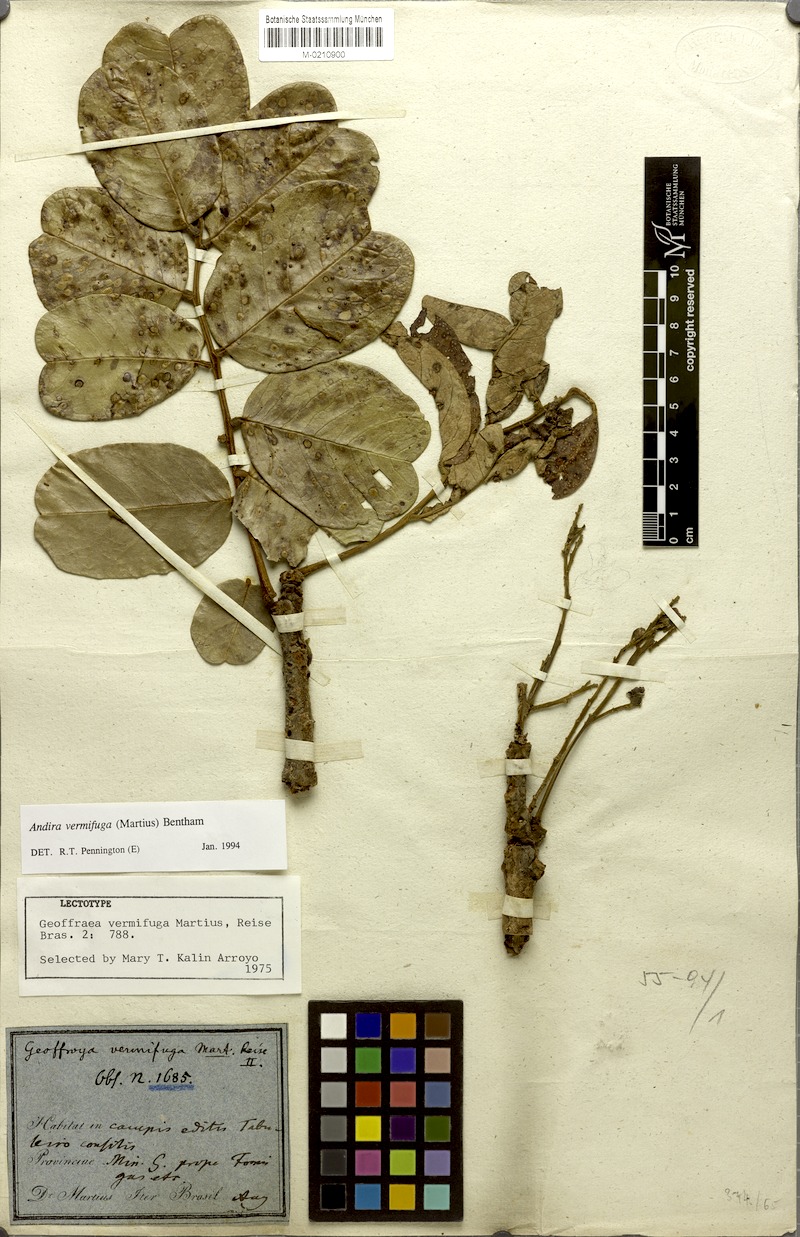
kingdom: Plantae
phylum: Tracheophyta
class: Magnoliopsida
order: Fabales
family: Fabaceae
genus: Andira
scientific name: Andira vermifuga
